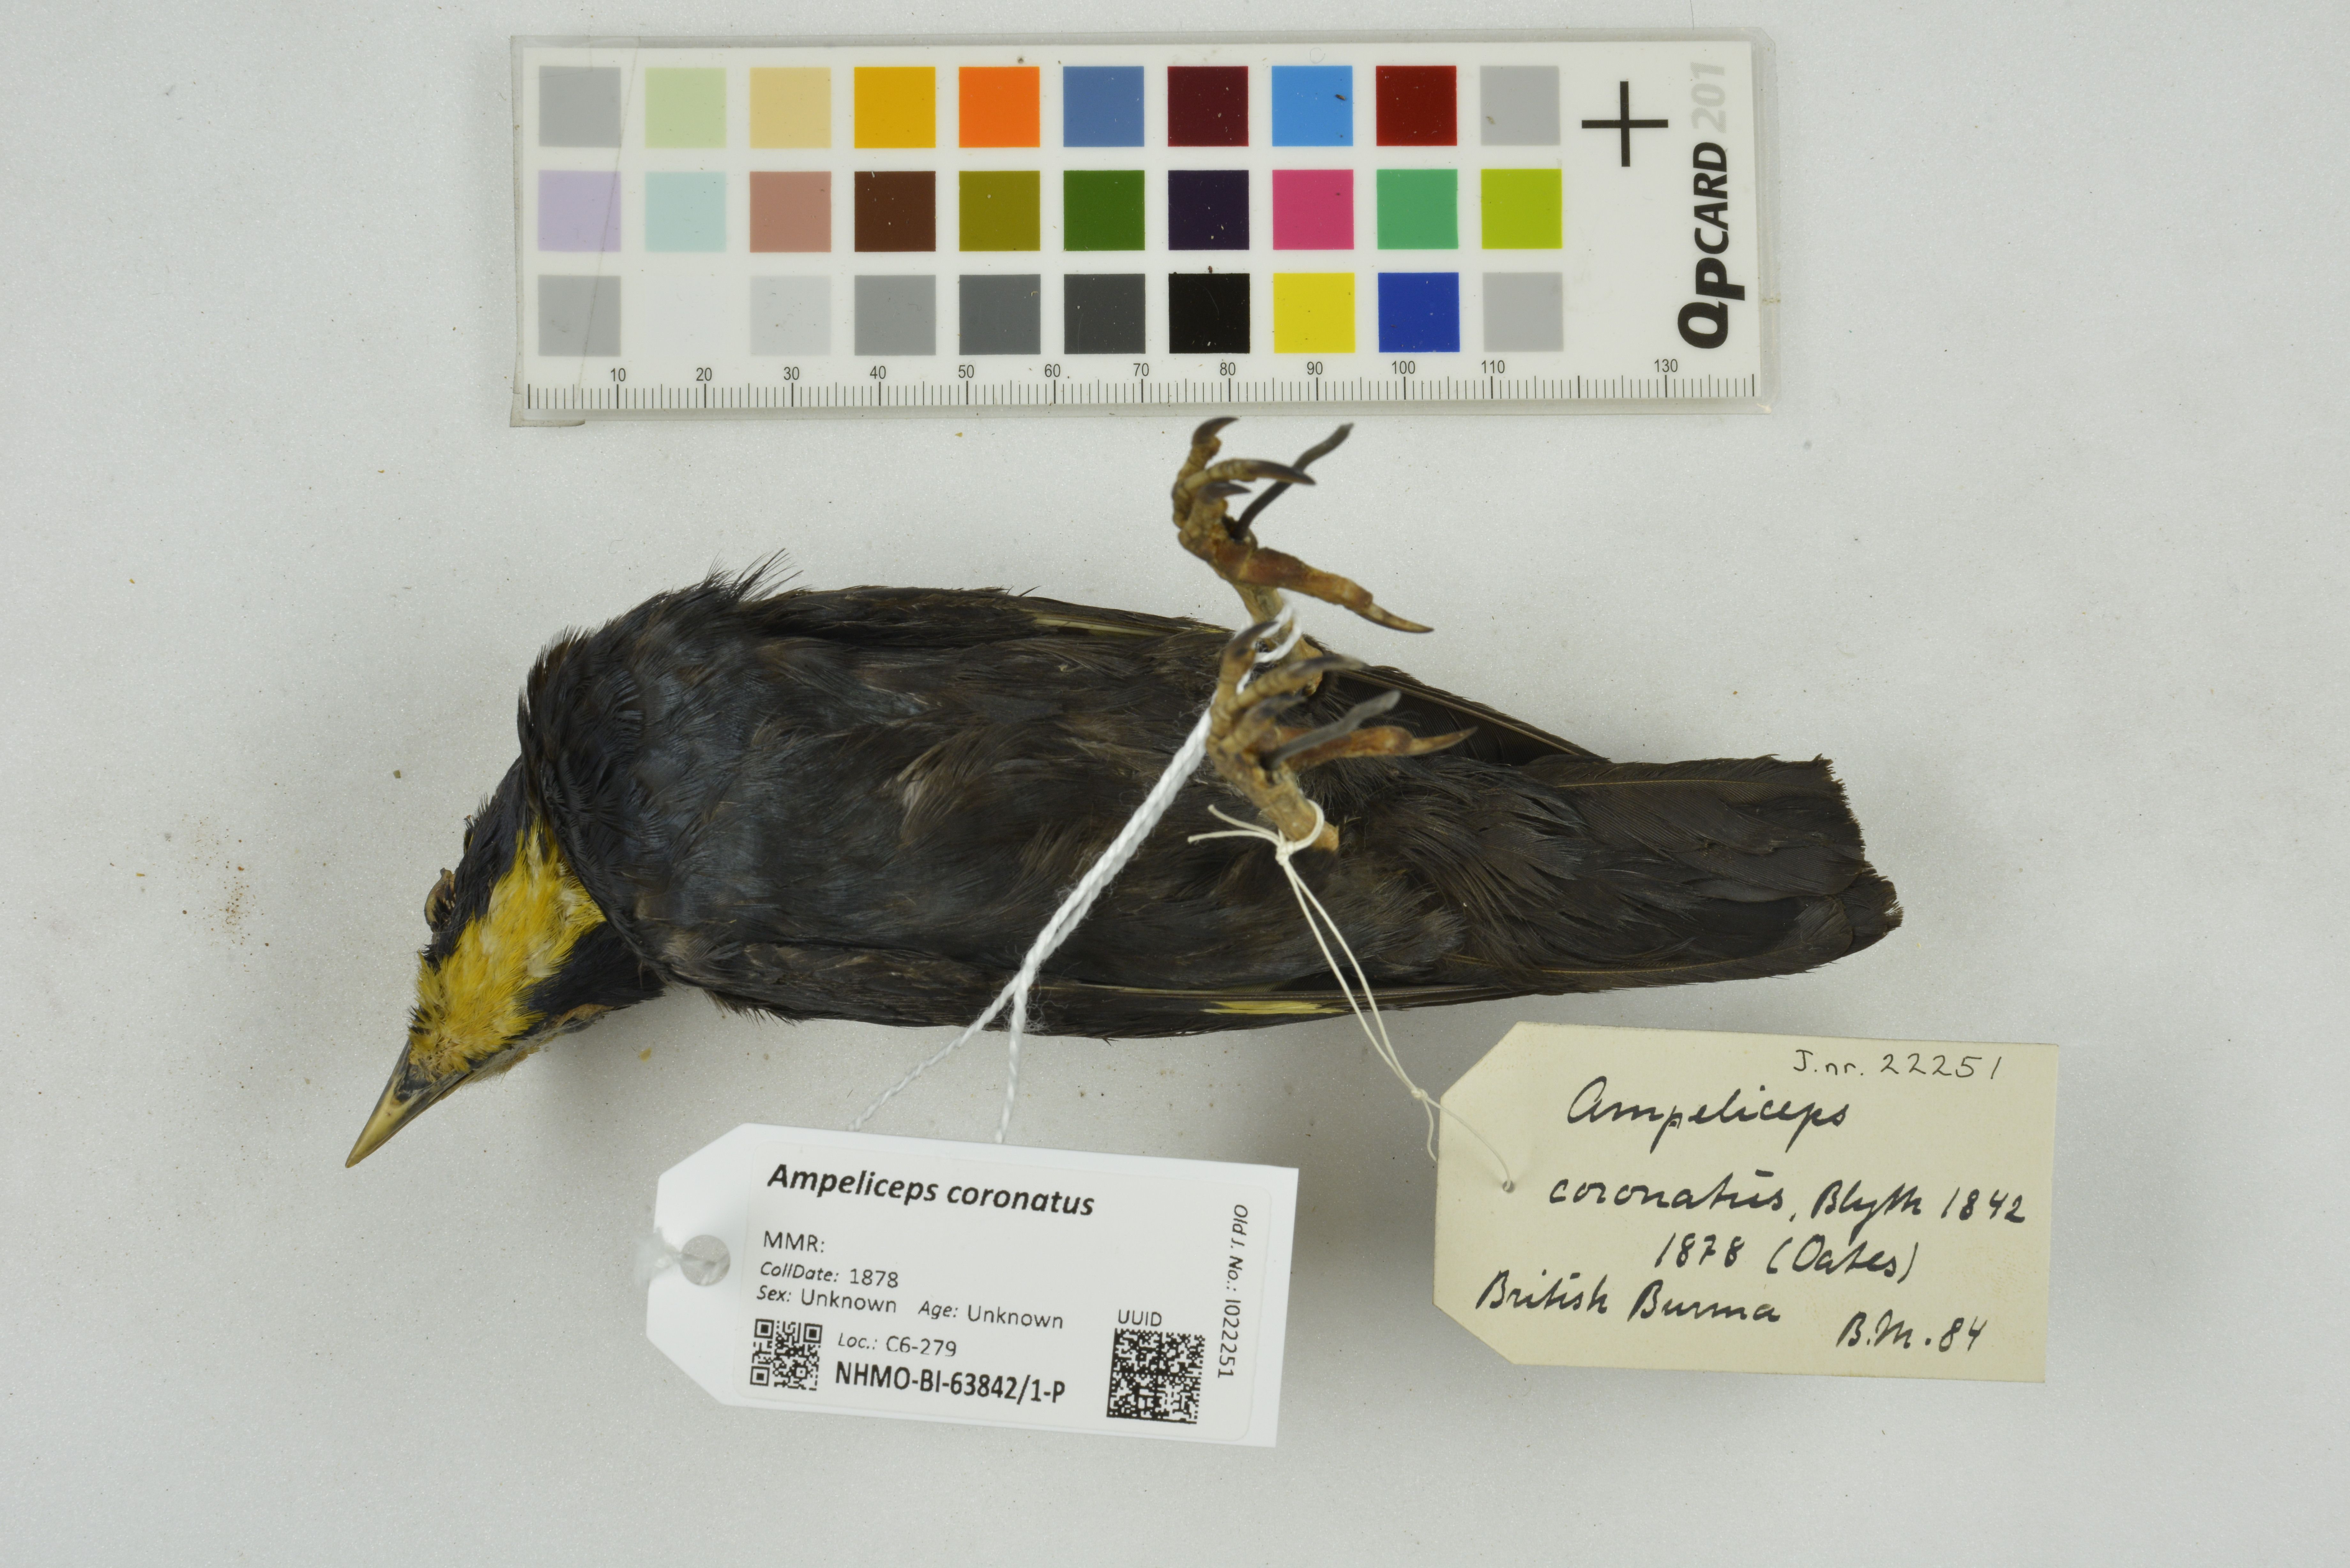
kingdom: Animalia
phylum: Chordata
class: Aves
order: Passeriformes
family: Sturnidae
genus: Ampeliceps
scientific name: Ampeliceps coronatus
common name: Golden-crested myna
